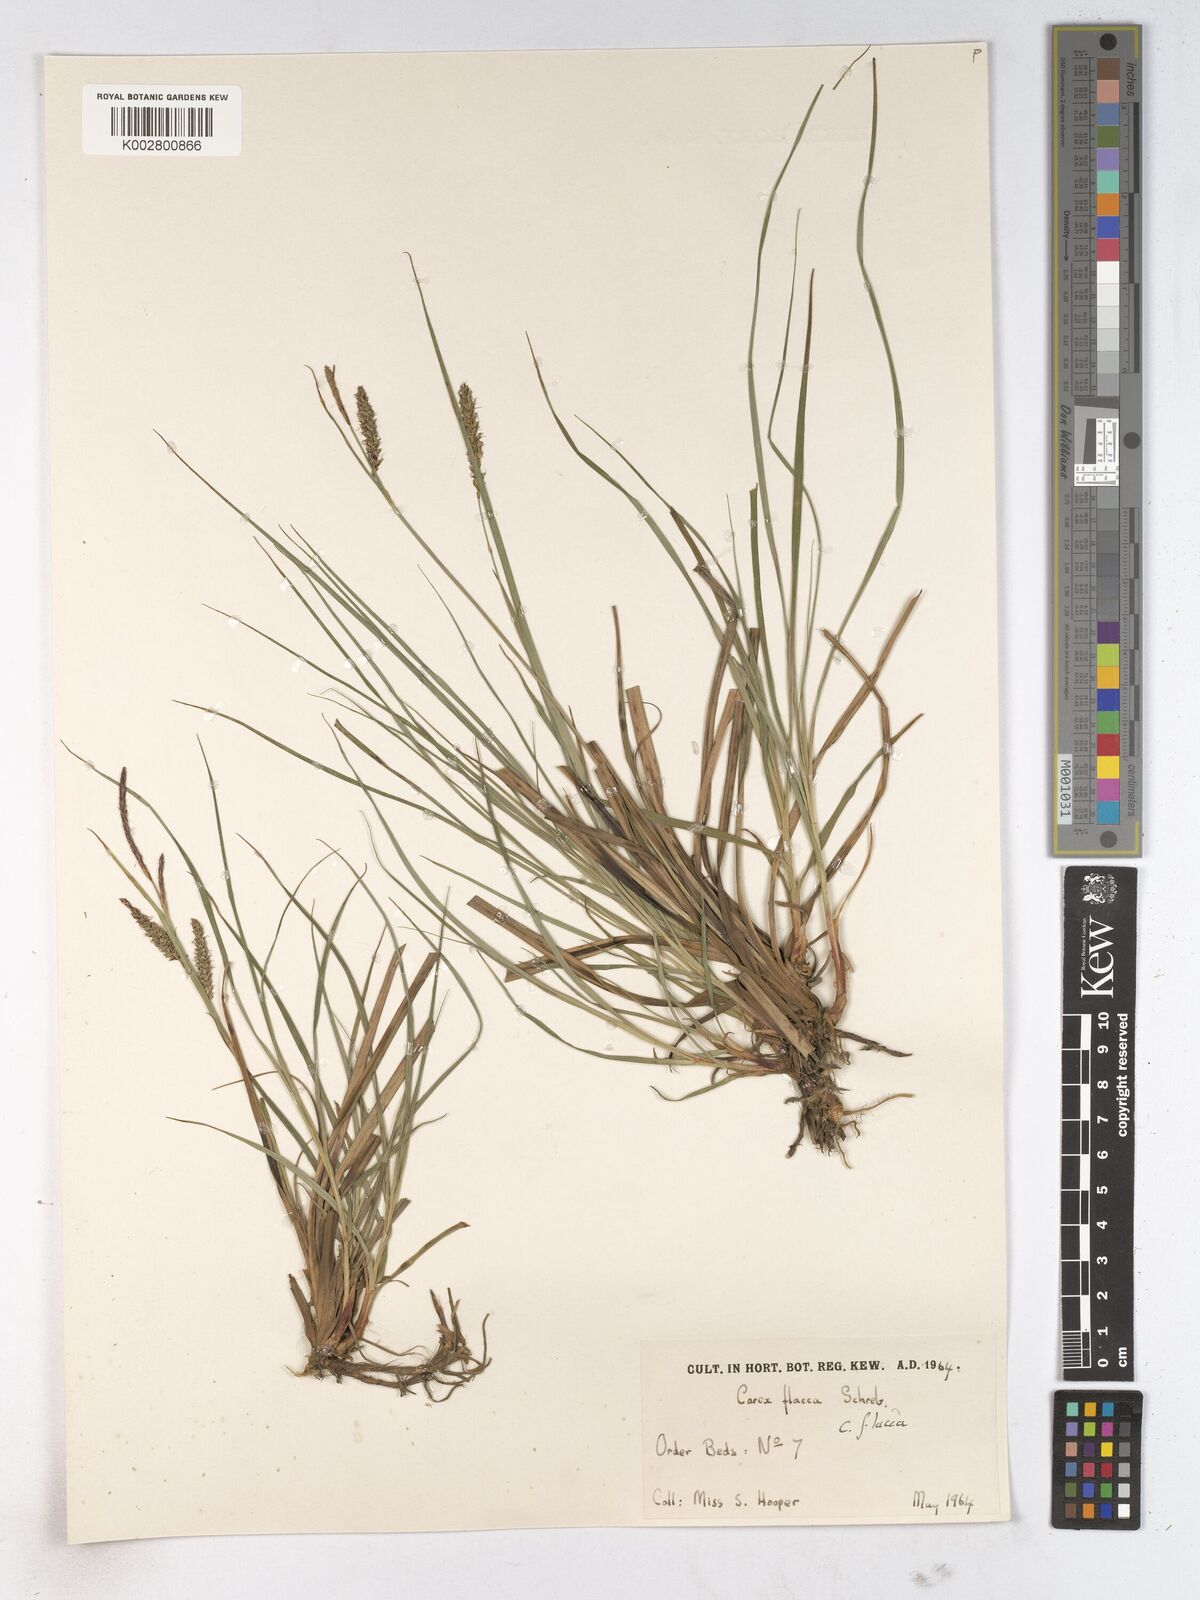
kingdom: Plantae
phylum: Tracheophyta
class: Liliopsida
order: Poales
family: Cyperaceae
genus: Carex
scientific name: Carex montana
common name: Soft-leaved sedge
